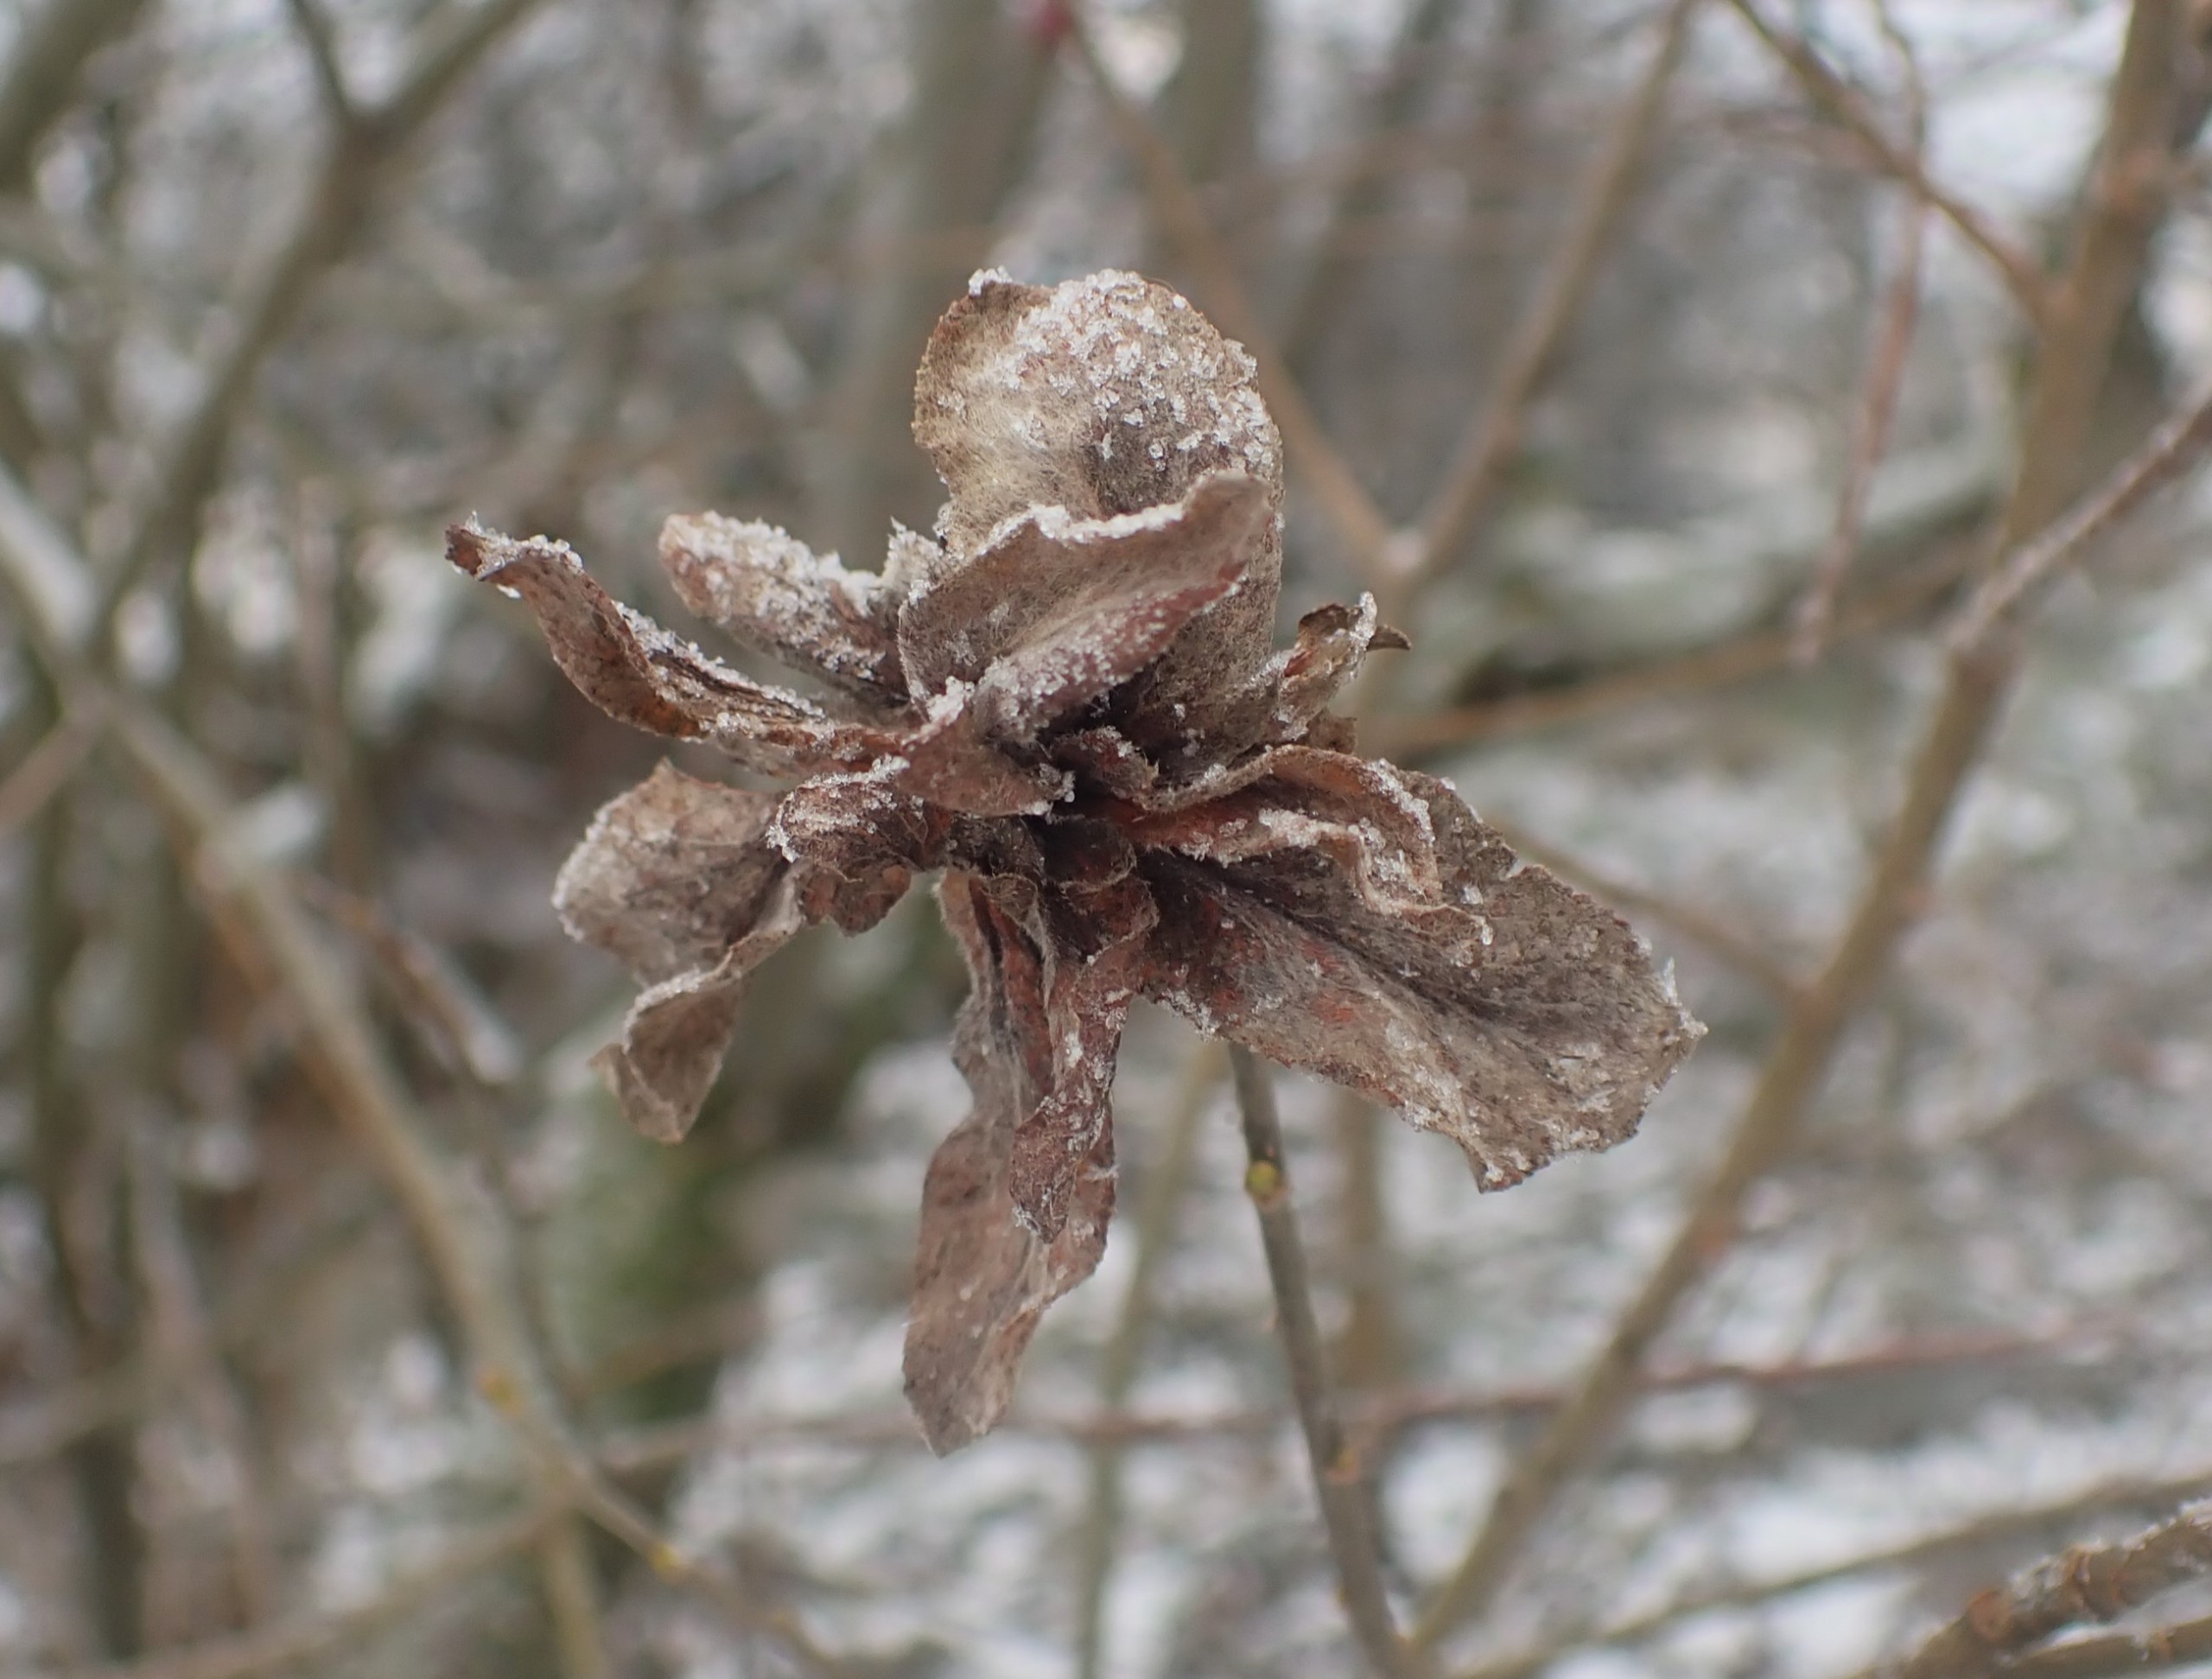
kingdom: Animalia
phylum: Arthropoda
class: Insecta
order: Diptera
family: Cecidomyiidae
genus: Rabdophaga
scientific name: Rabdophaga rosaria
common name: Pilerosetgalmyg
